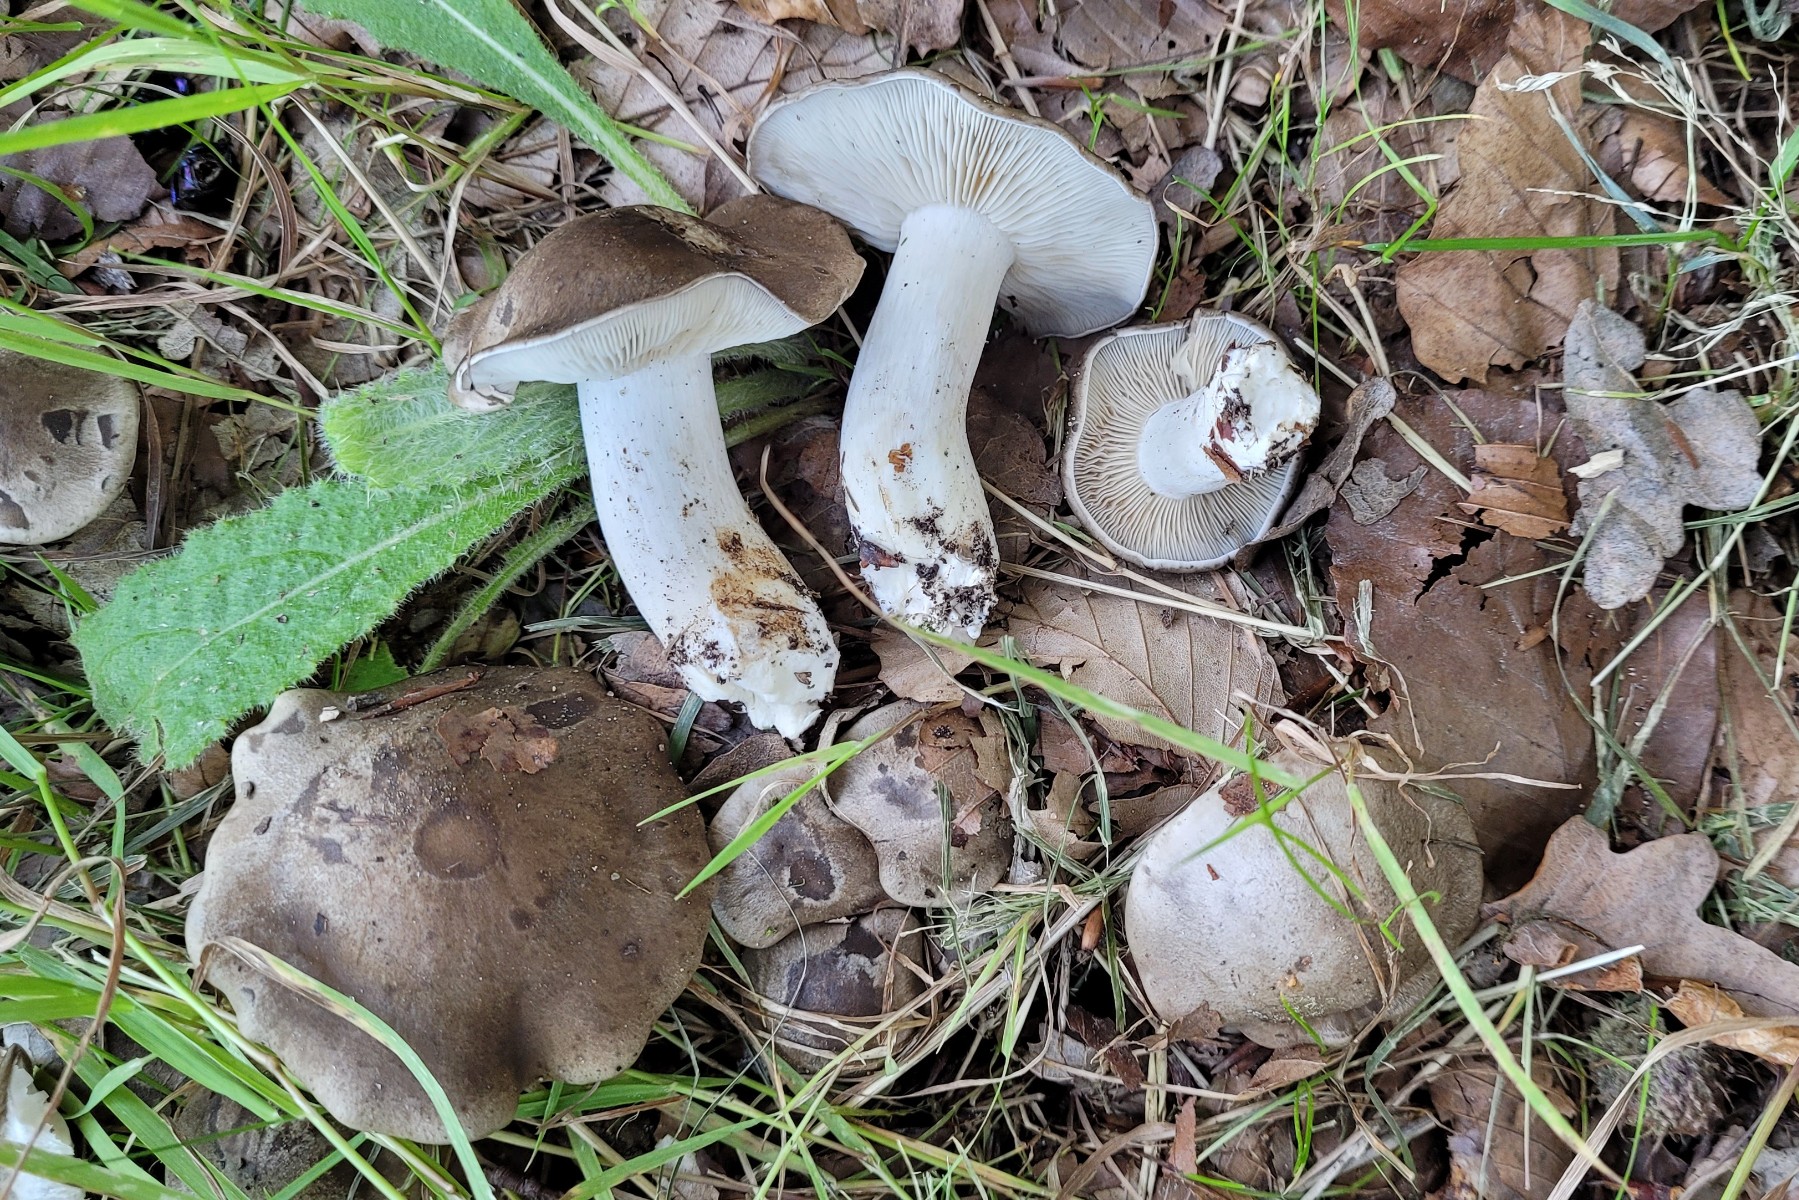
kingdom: Fungi
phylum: Basidiomycota
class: Agaricomycetes
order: Agaricales
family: Lyophyllaceae
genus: Lyophyllum
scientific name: Lyophyllum decastes
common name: Clustered domecap
